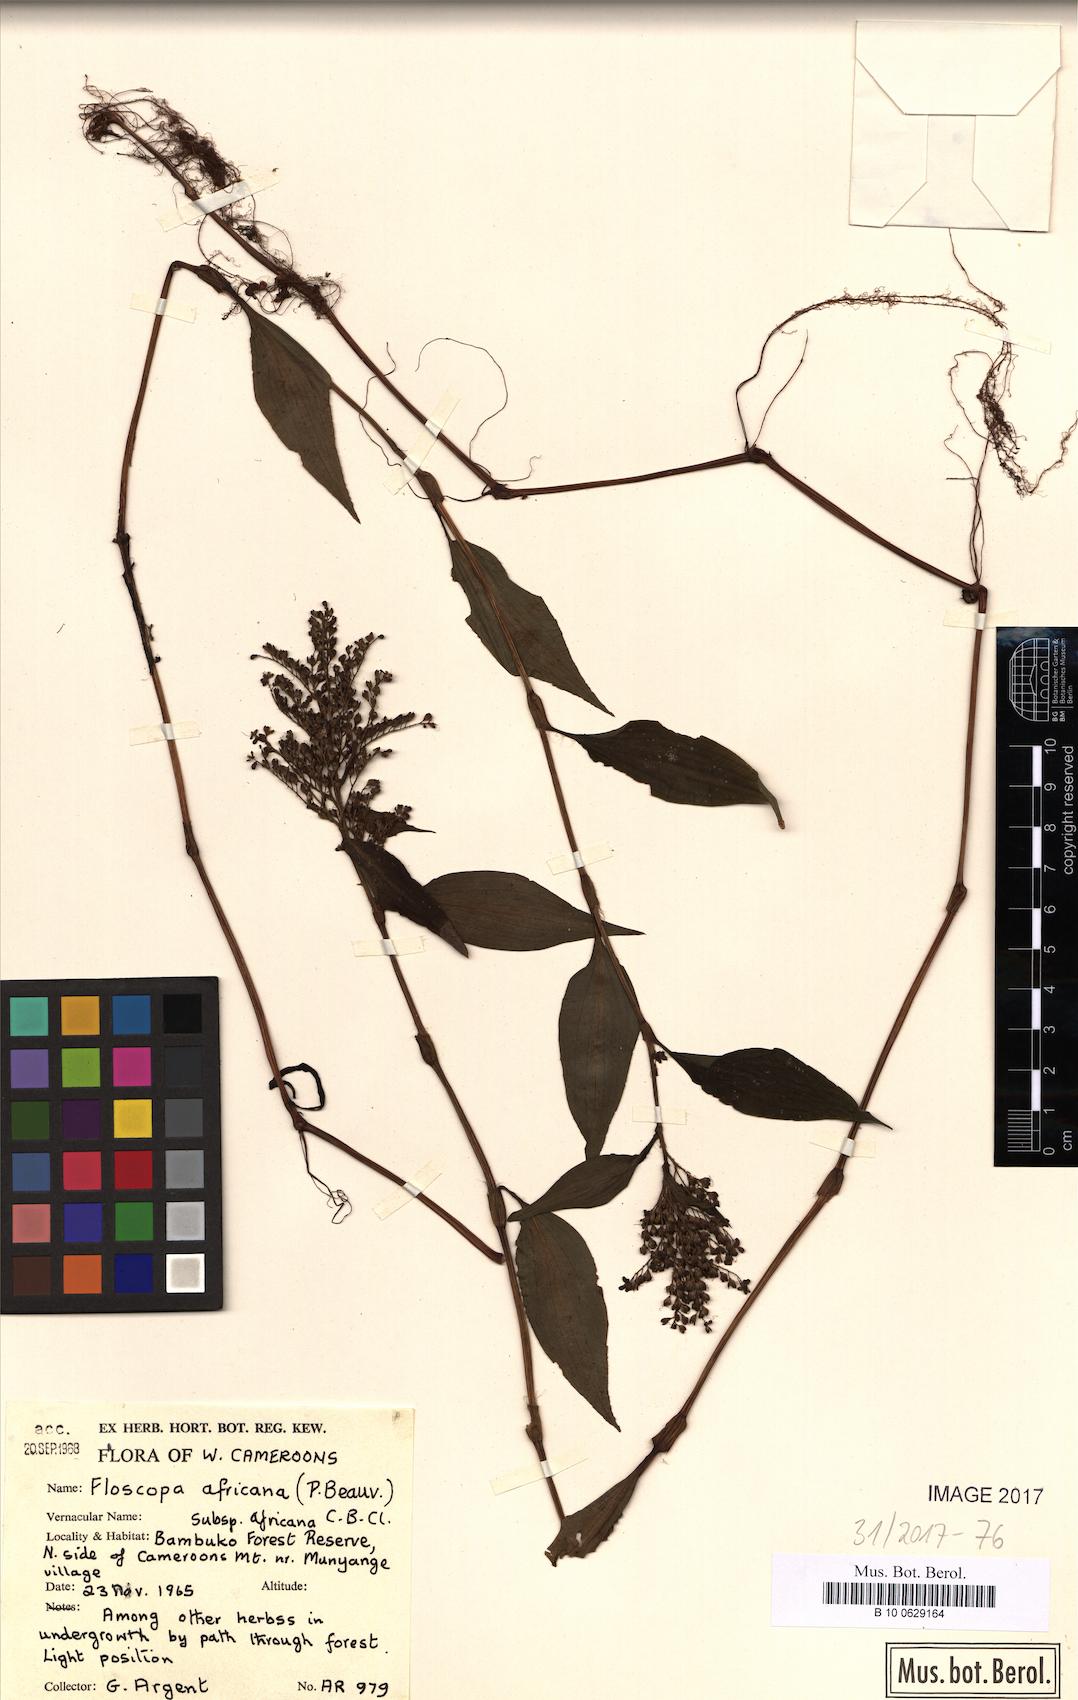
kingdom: Plantae
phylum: Tracheophyta
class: Liliopsida
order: Commelinales
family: Commelinaceae
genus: Floscopa
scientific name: Floscopa africana
